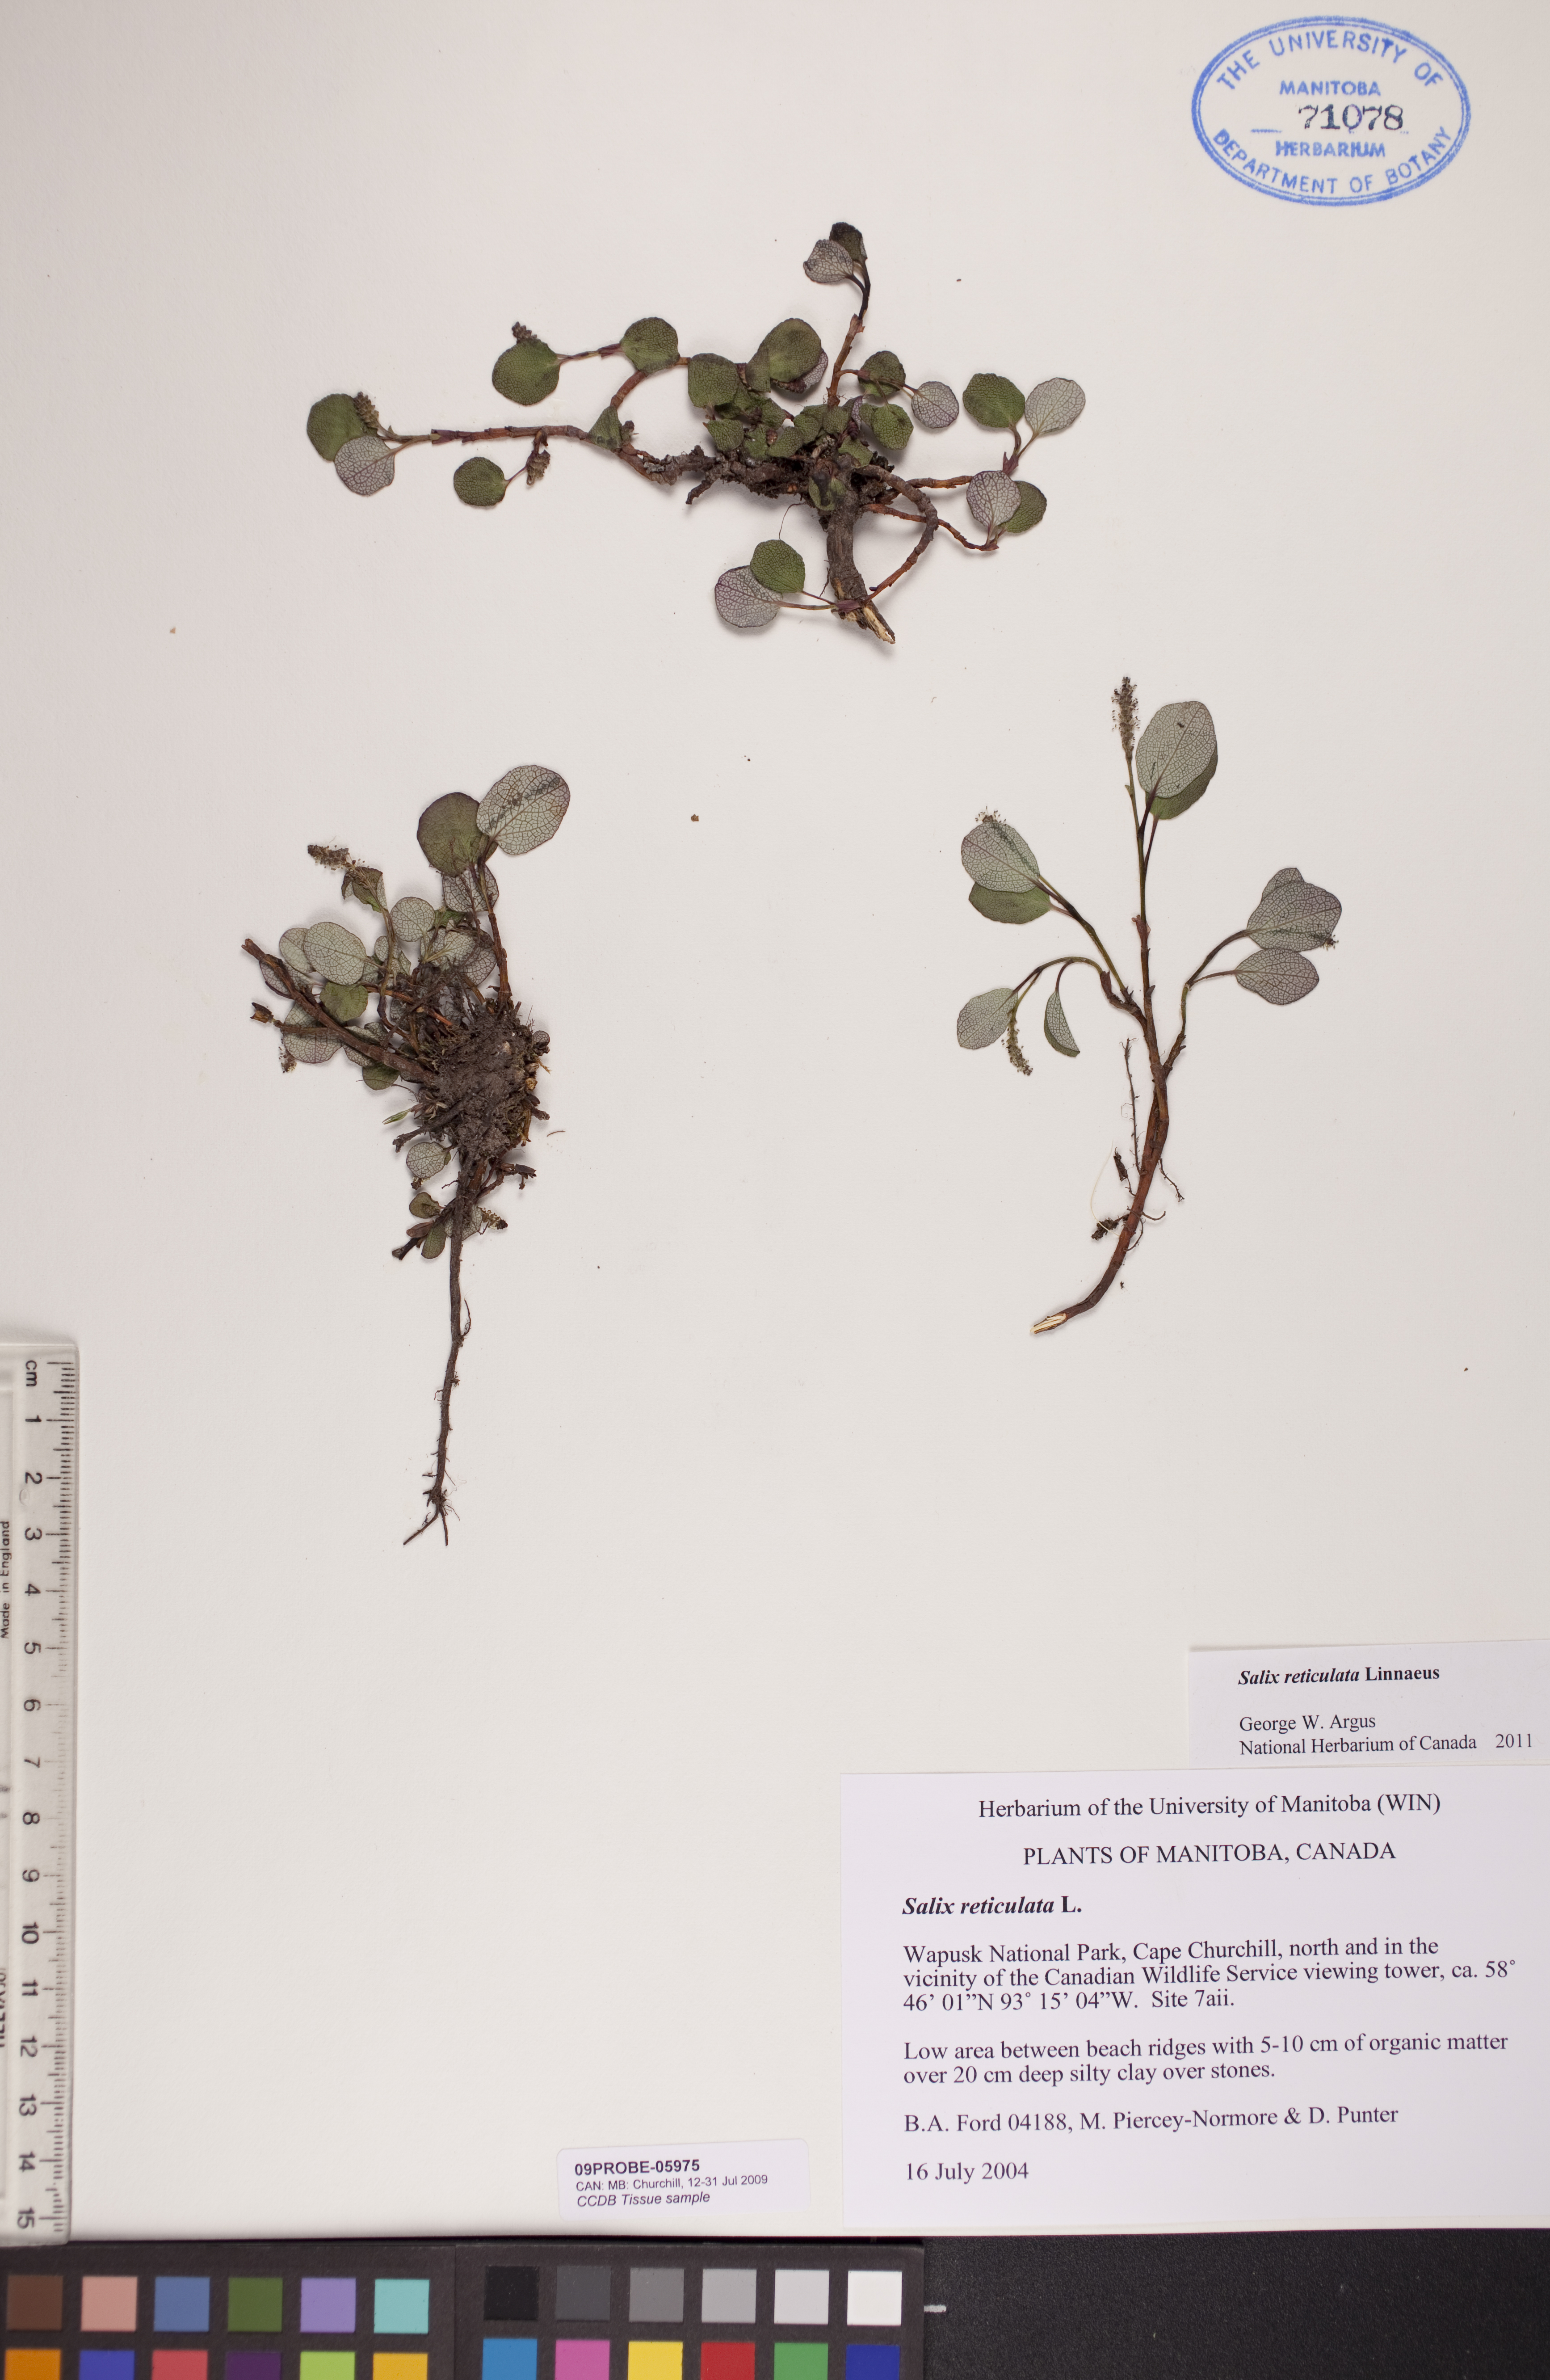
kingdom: Plantae
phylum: Tracheophyta
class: Magnoliopsida
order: Malpighiales
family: Salicaceae
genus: Salix
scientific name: Salix reticulata
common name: Net-leaved willow
